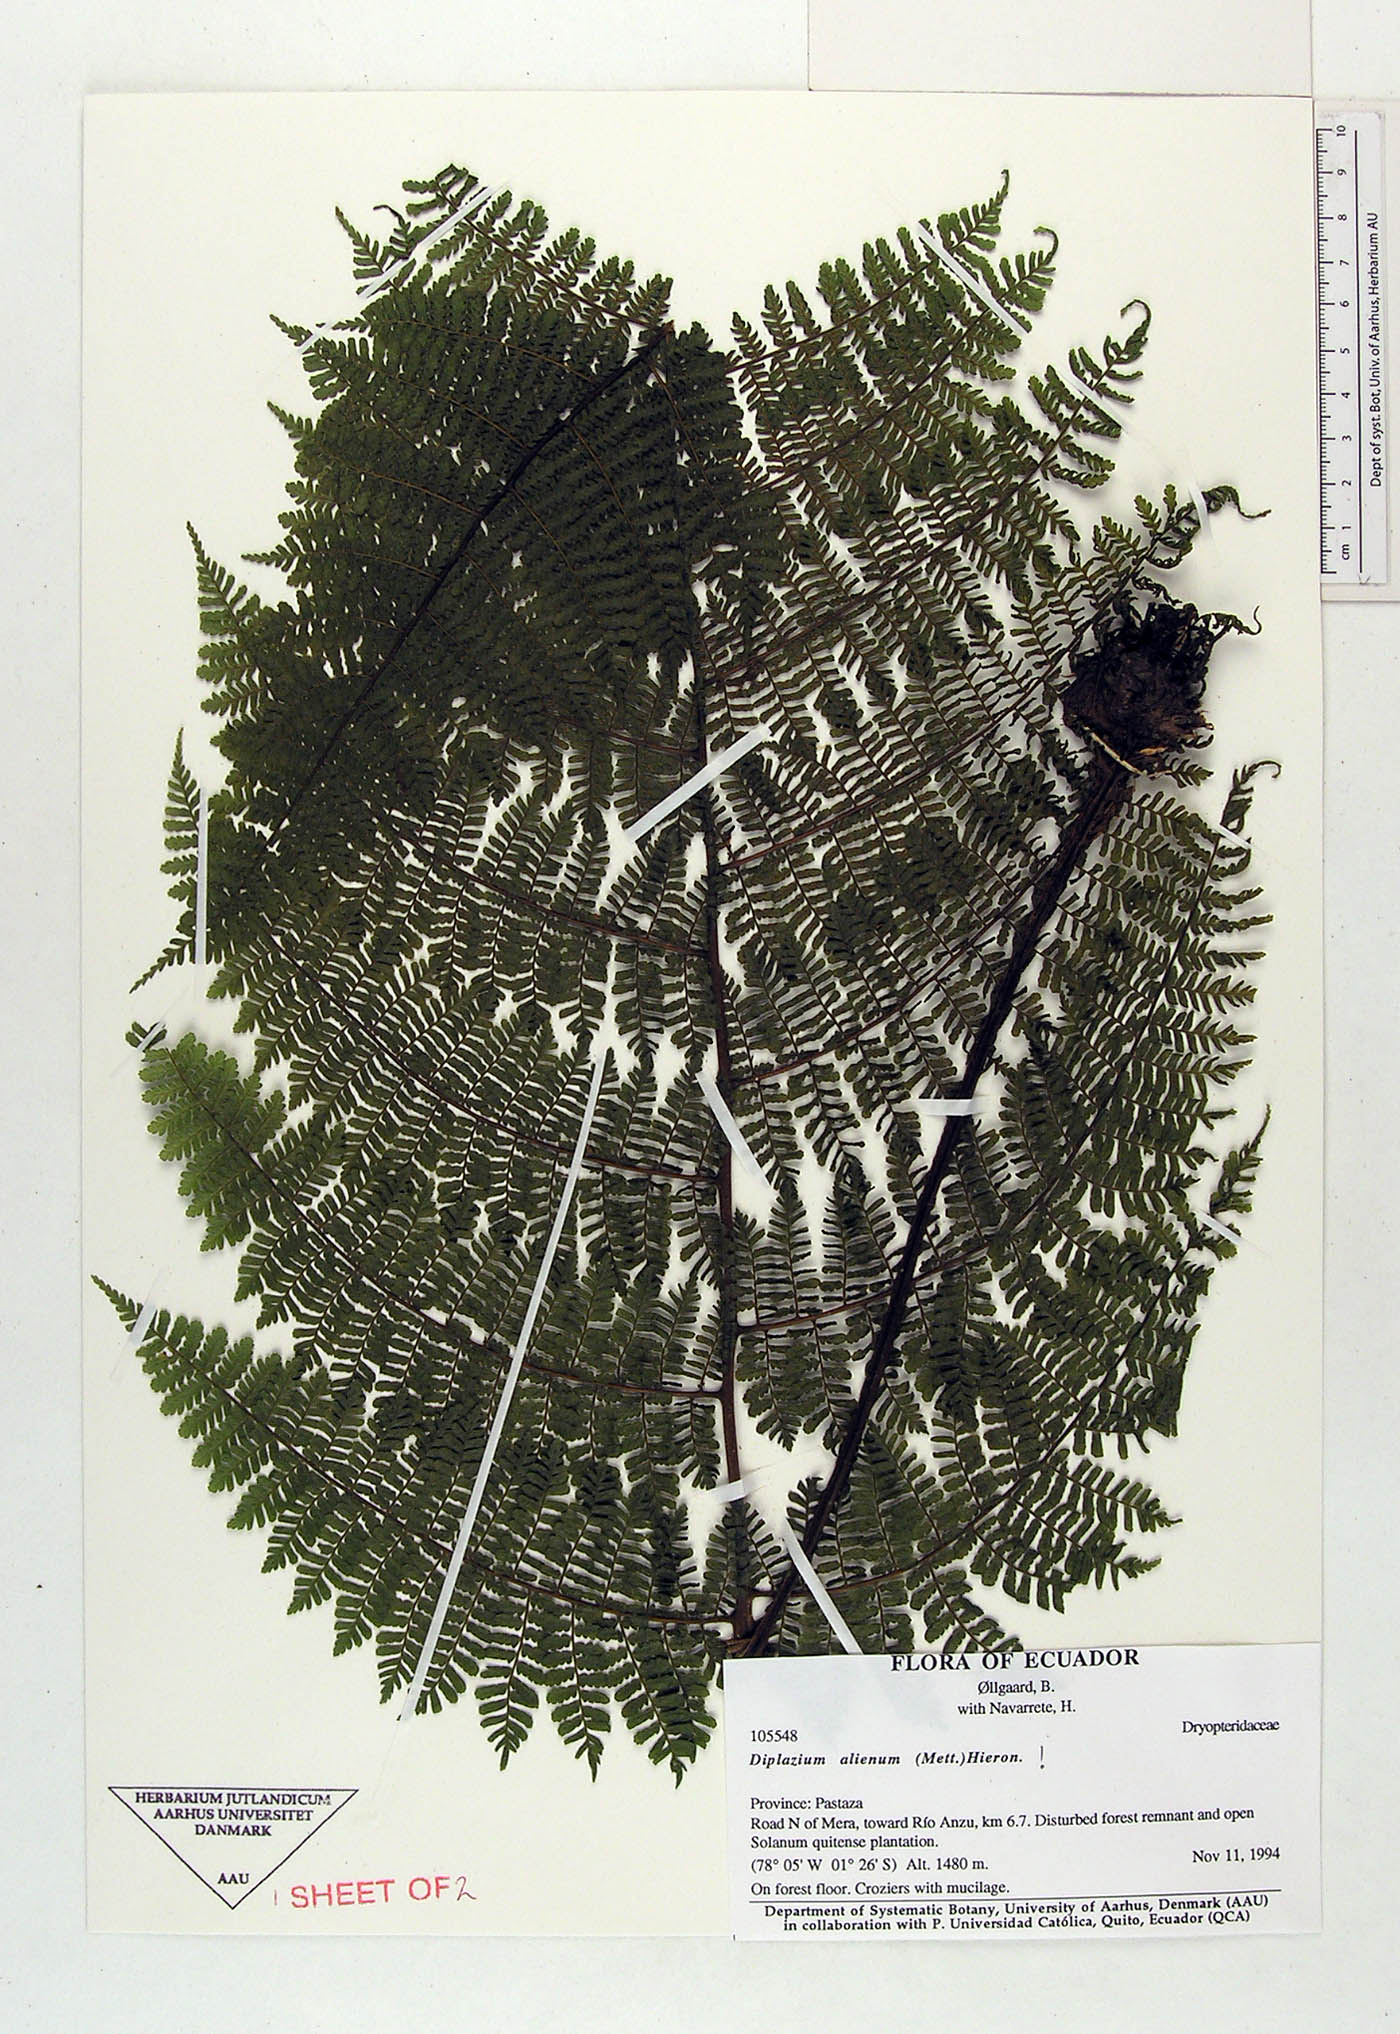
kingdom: Plantae
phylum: Tracheophyta
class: Polypodiopsida
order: Polypodiales
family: Athyriaceae
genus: Diplazium
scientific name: Diplazium alienum
